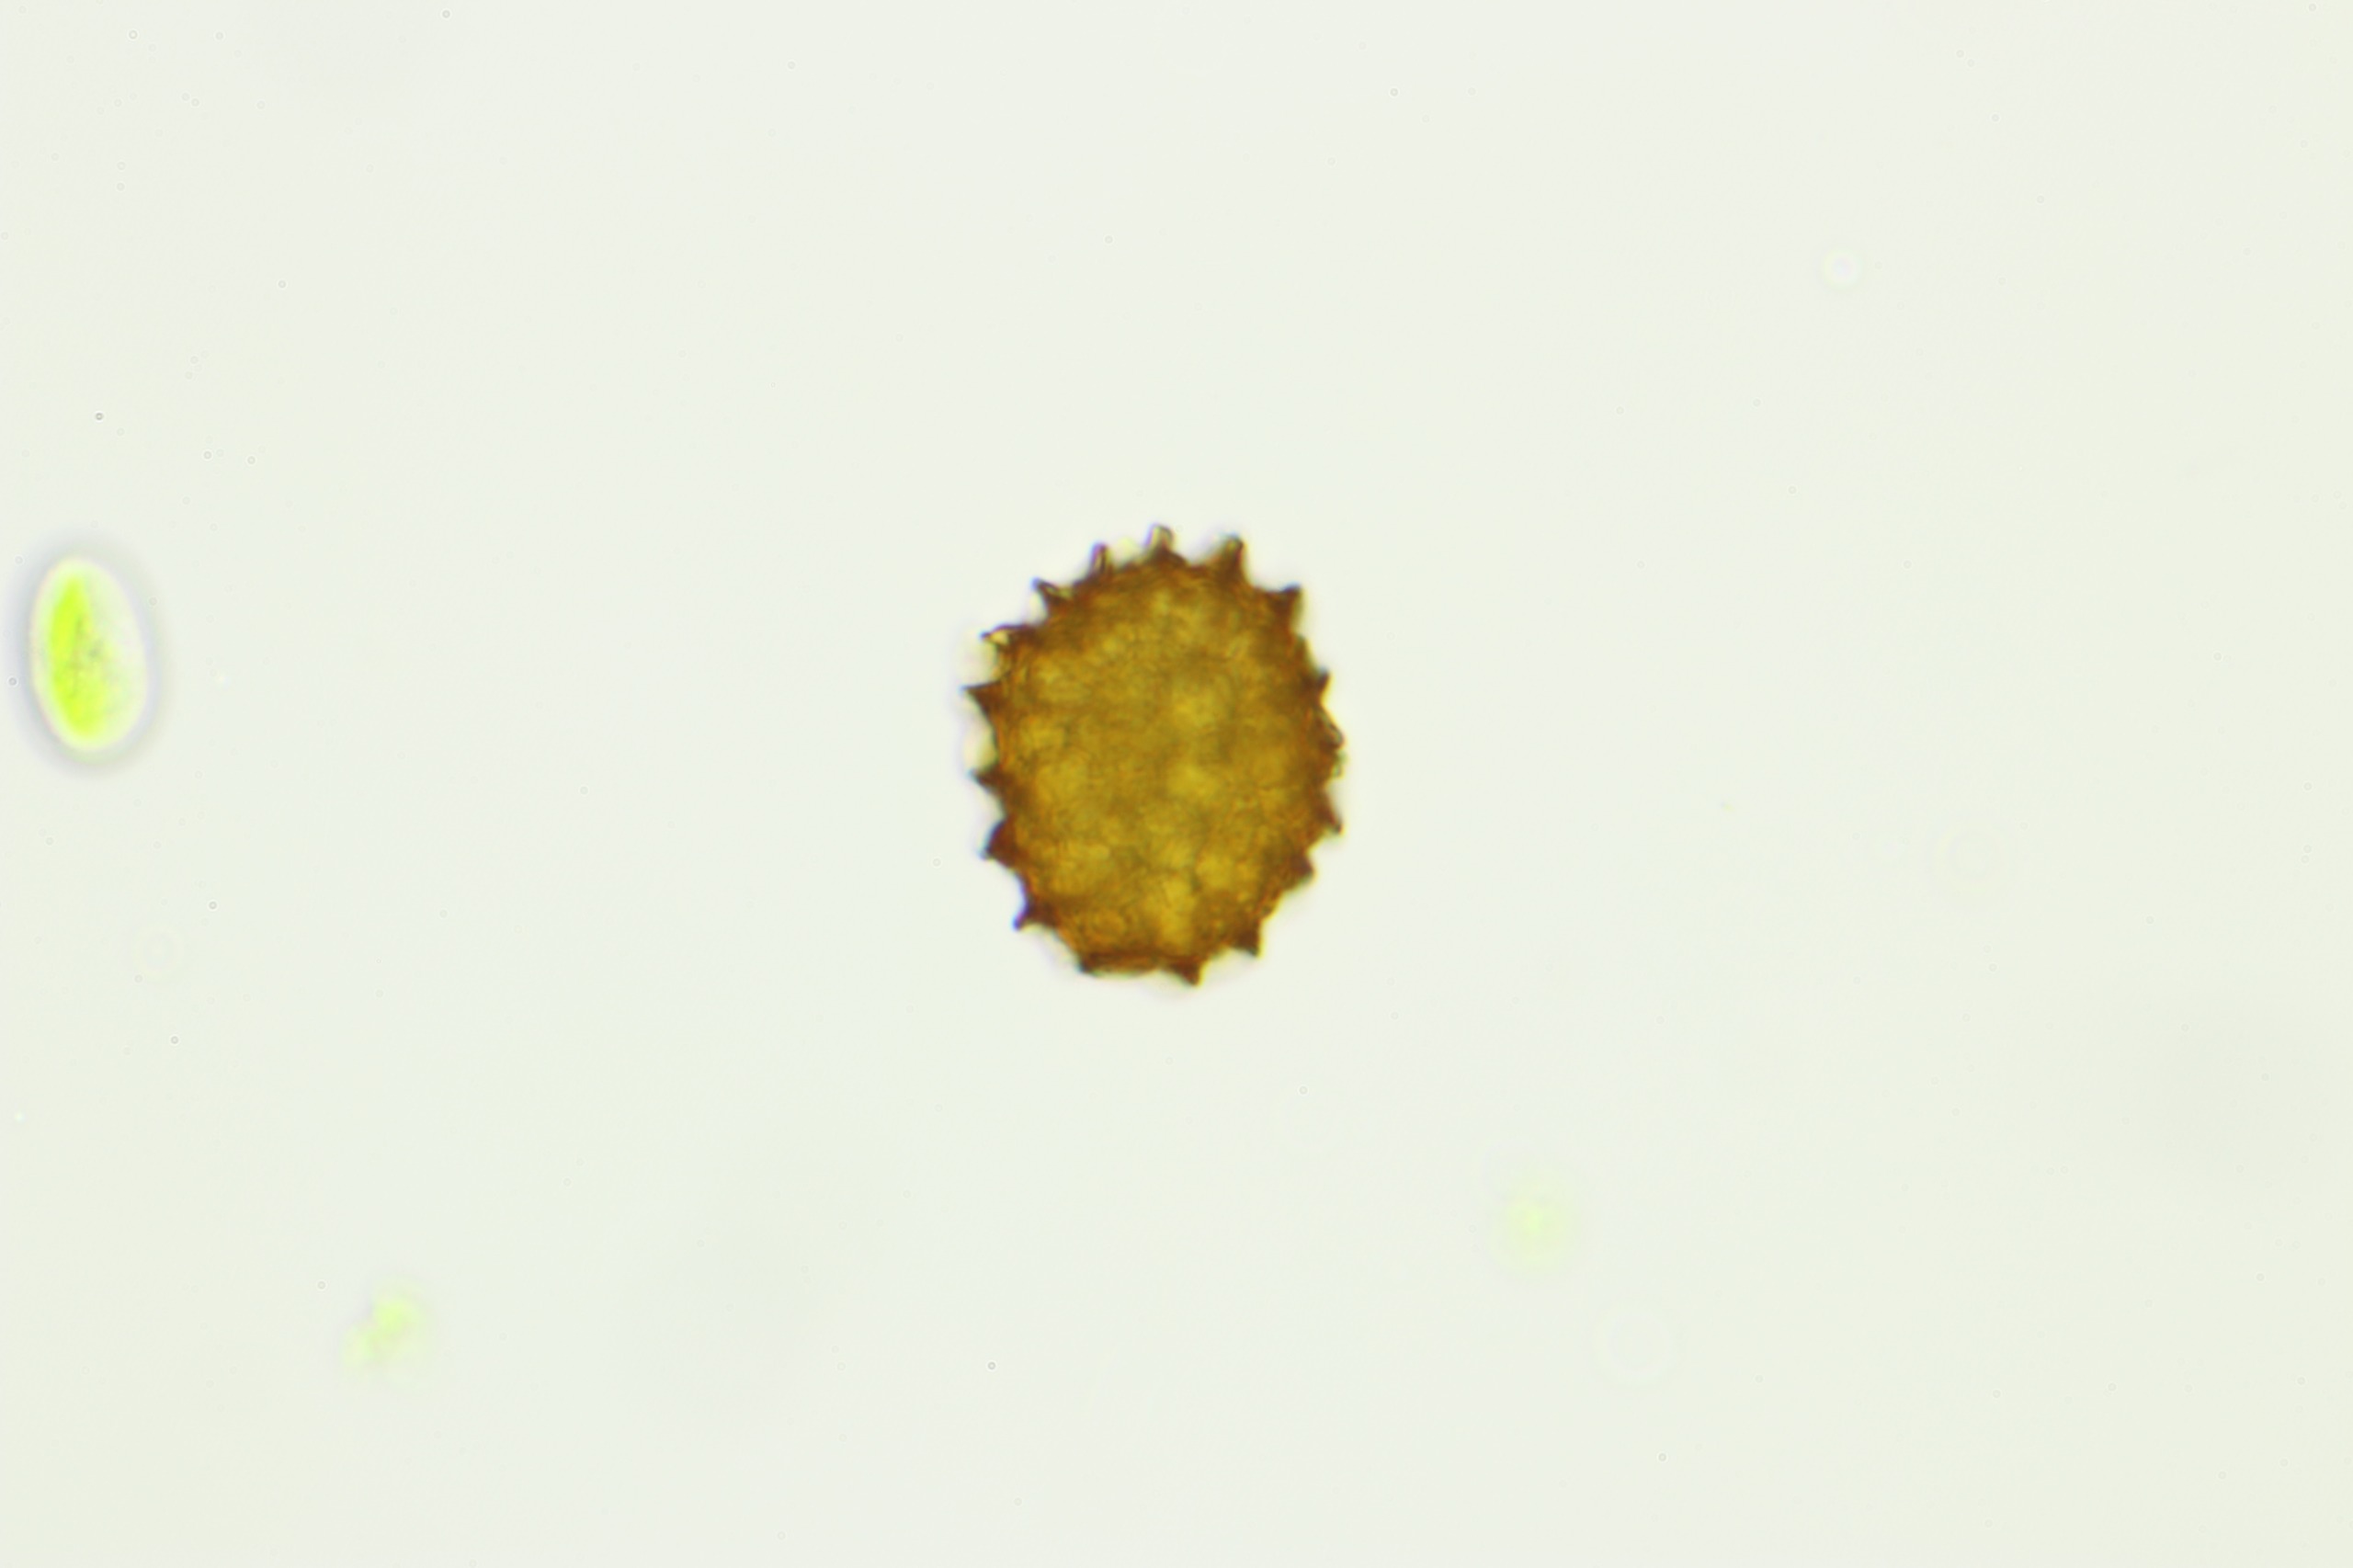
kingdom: Plantae
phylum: Marchantiophyta
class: Jungermanniopsida
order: Fossombroniales
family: Fossombroniaceae
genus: Fossombronia
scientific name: Fossombronia pusilla
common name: Stor klokkesvøb
